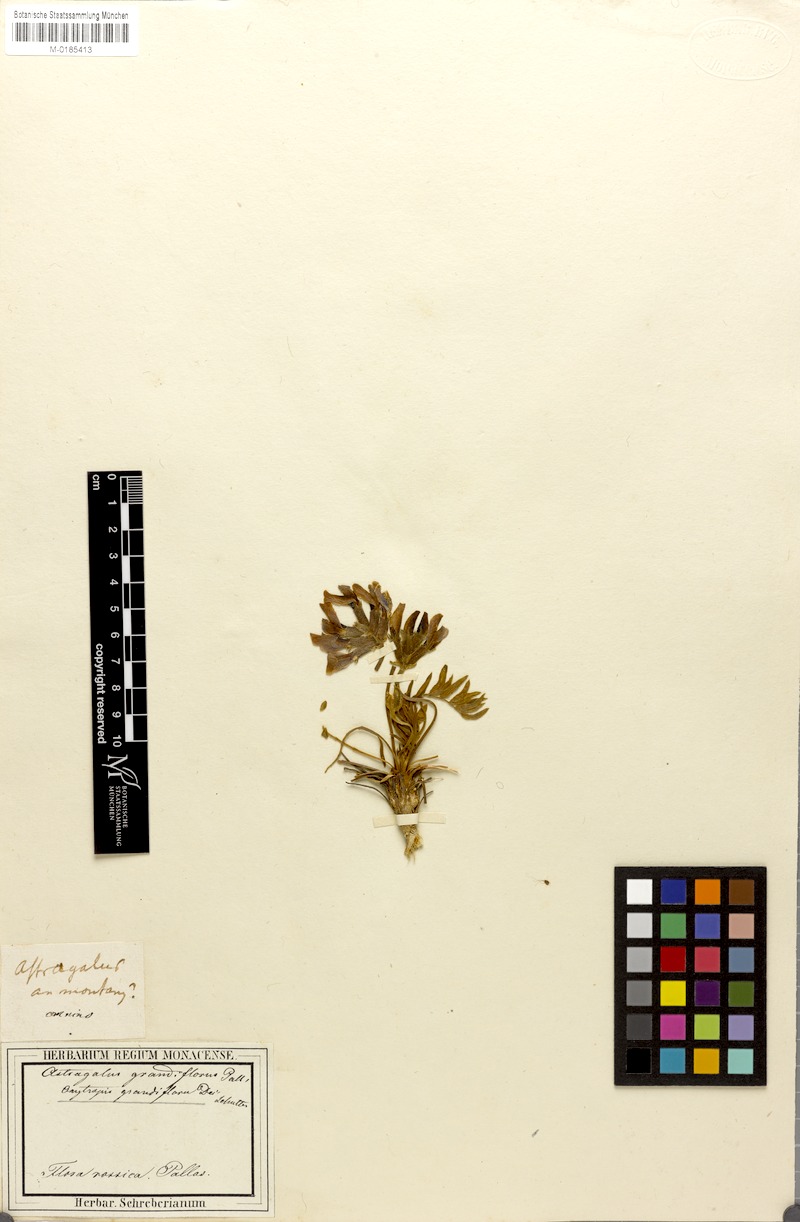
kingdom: Plantae
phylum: Tracheophyta
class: Magnoliopsida
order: Fabales
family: Fabaceae
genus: Oxytropis
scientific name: Oxytropis grandiflora
